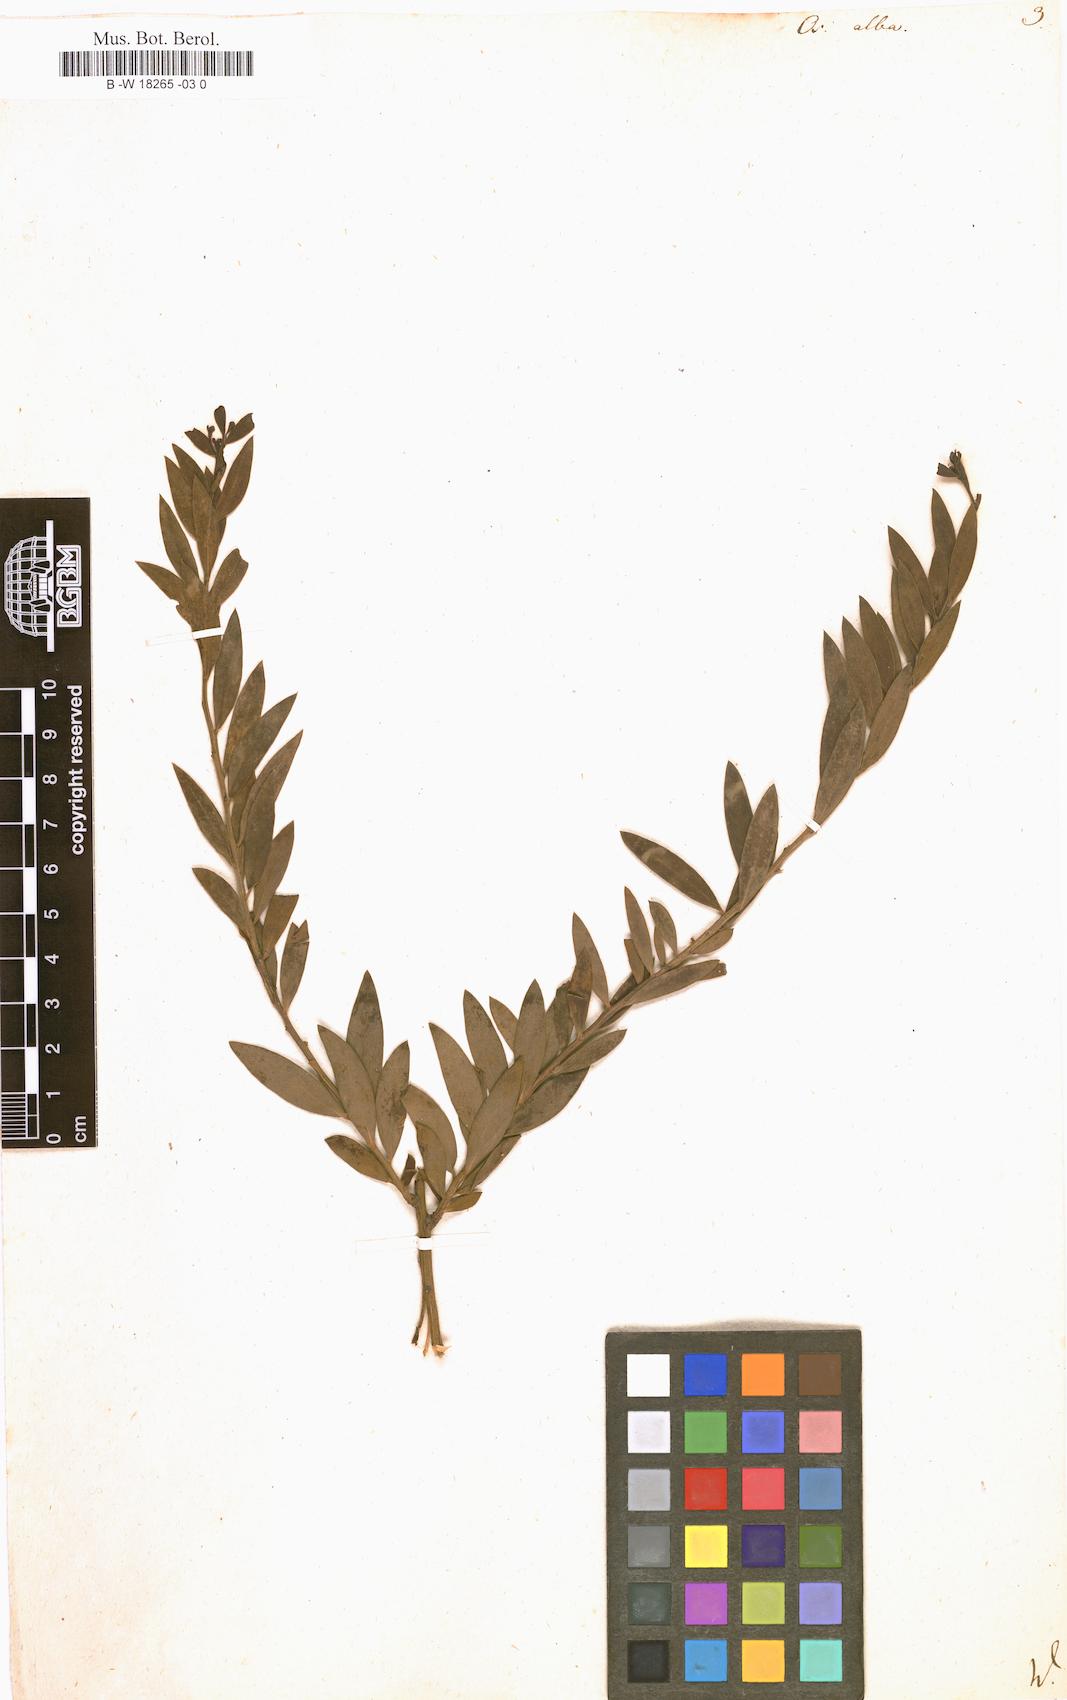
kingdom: Plantae
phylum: Tracheophyta
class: Magnoliopsida
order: Santalales
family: Santalaceae
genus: Osyris
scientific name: Osyris alba
